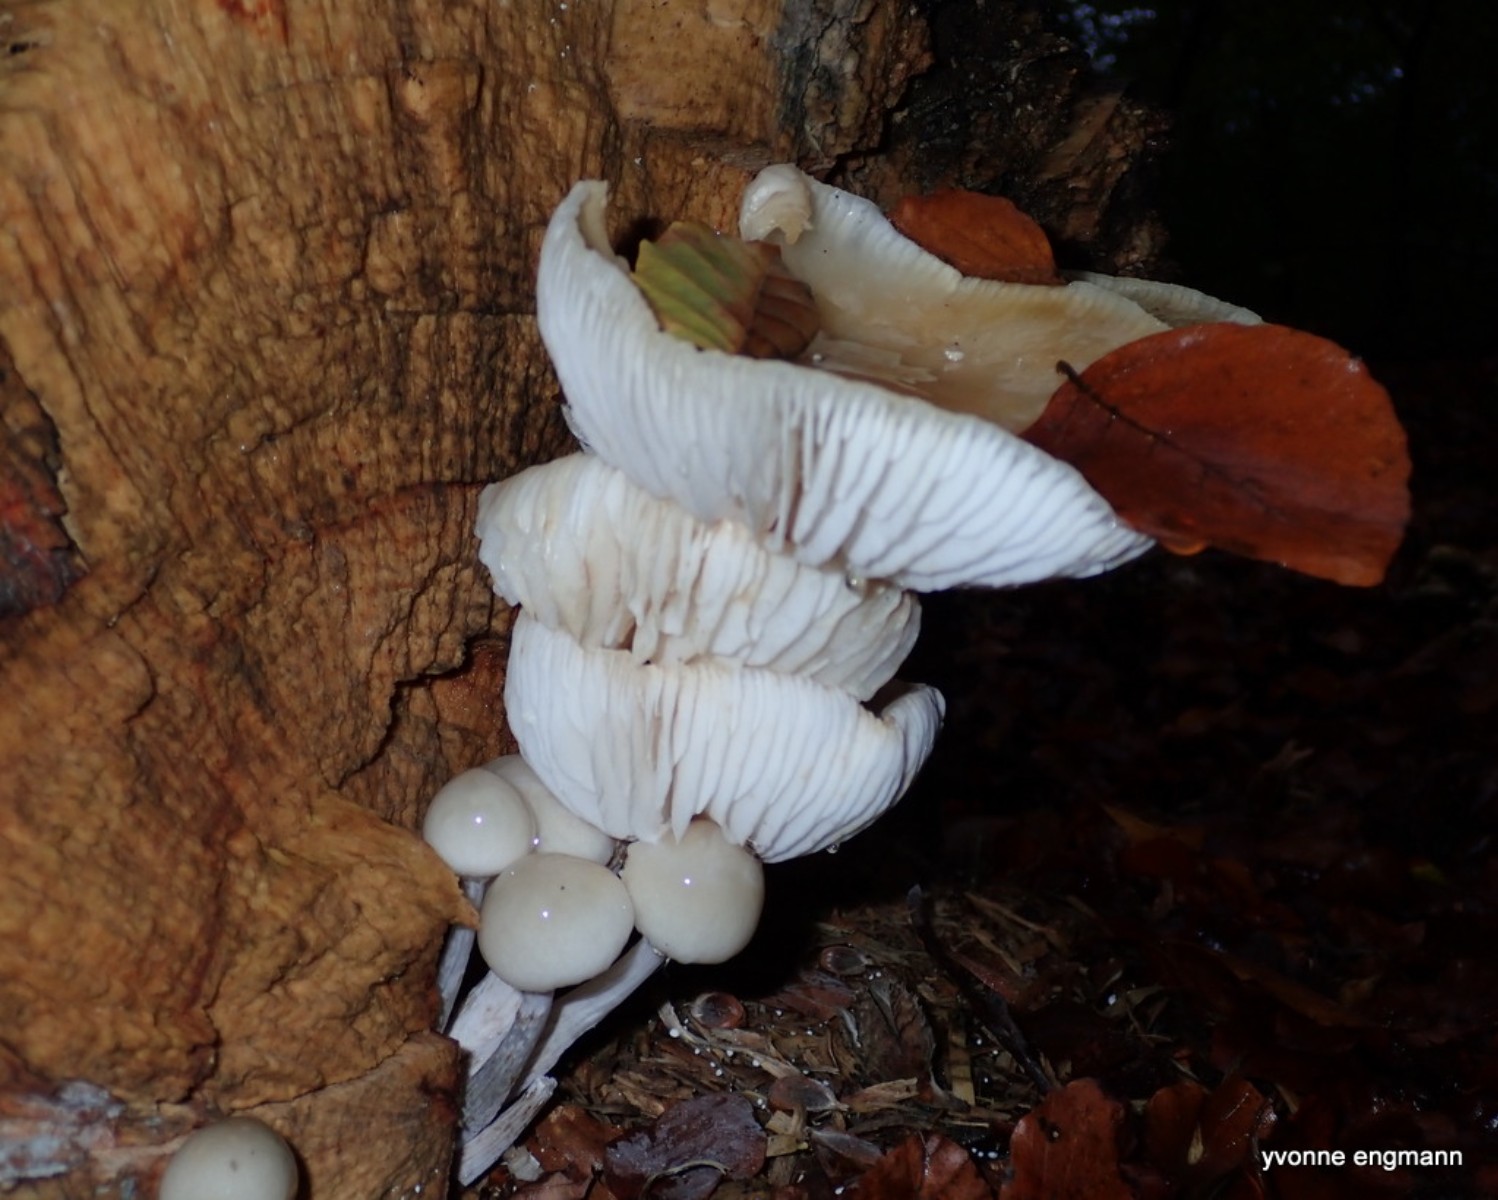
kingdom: Fungi
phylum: Basidiomycota
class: Agaricomycetes
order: Agaricales
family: Physalacriaceae
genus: Mucidula
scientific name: Mucidula mucida
